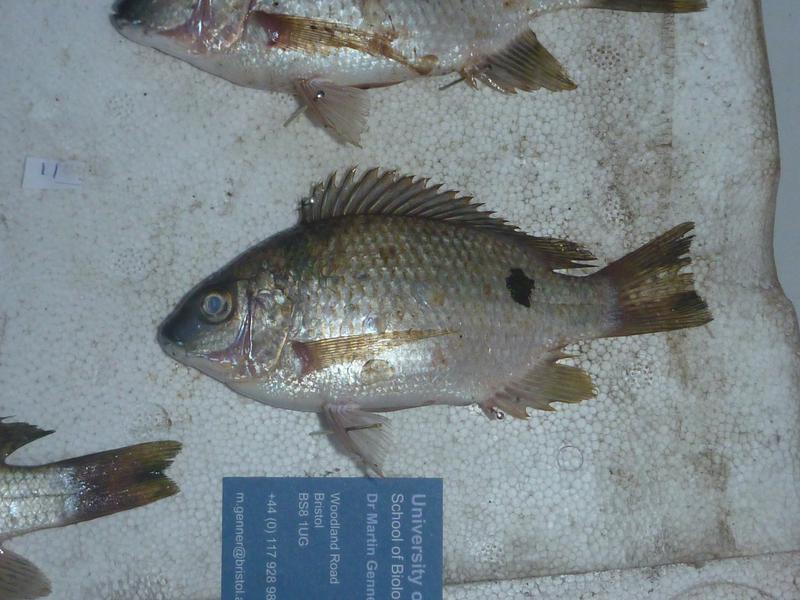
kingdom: Animalia
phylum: Chordata
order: Perciformes
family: Cichlidae
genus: Oreochromis
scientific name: Oreochromis karomo
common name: Karomo
